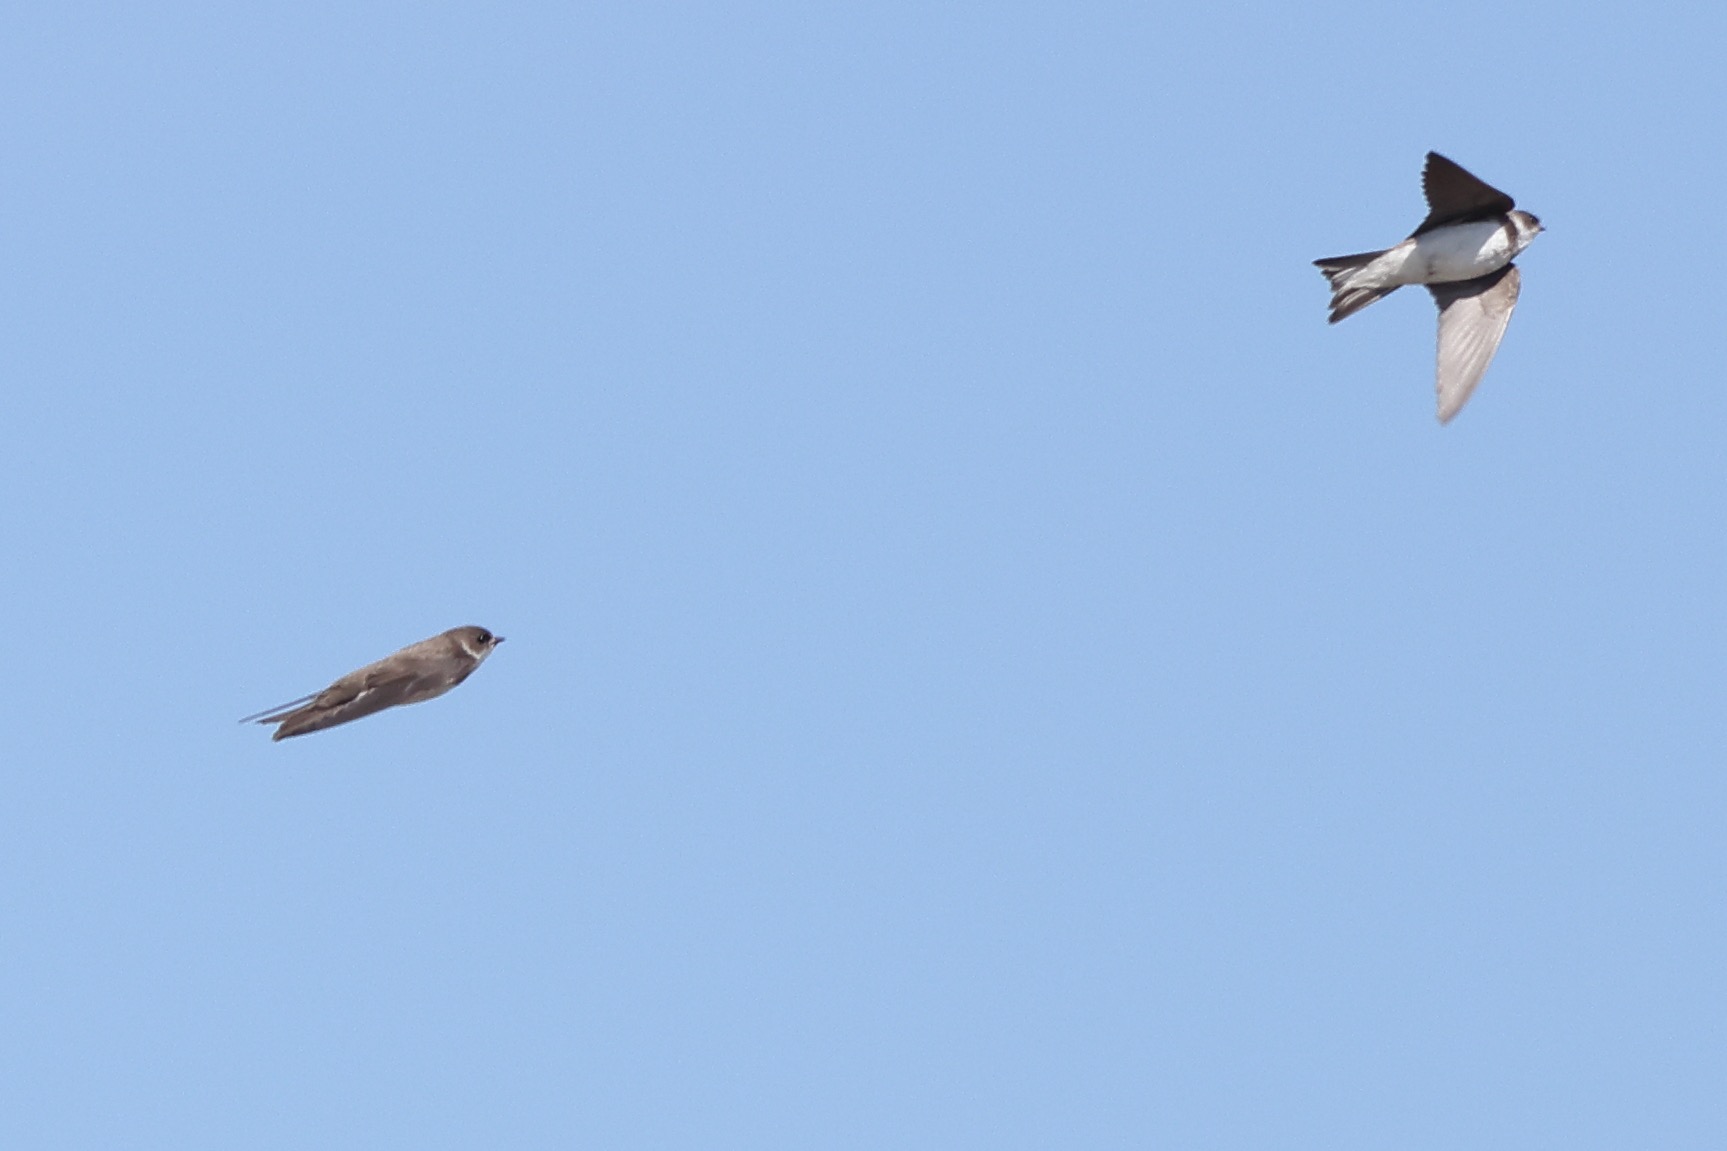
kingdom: Animalia
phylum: Chordata
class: Aves
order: Passeriformes
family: Hirundinidae
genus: Riparia
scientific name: Riparia riparia
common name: Digesvale
